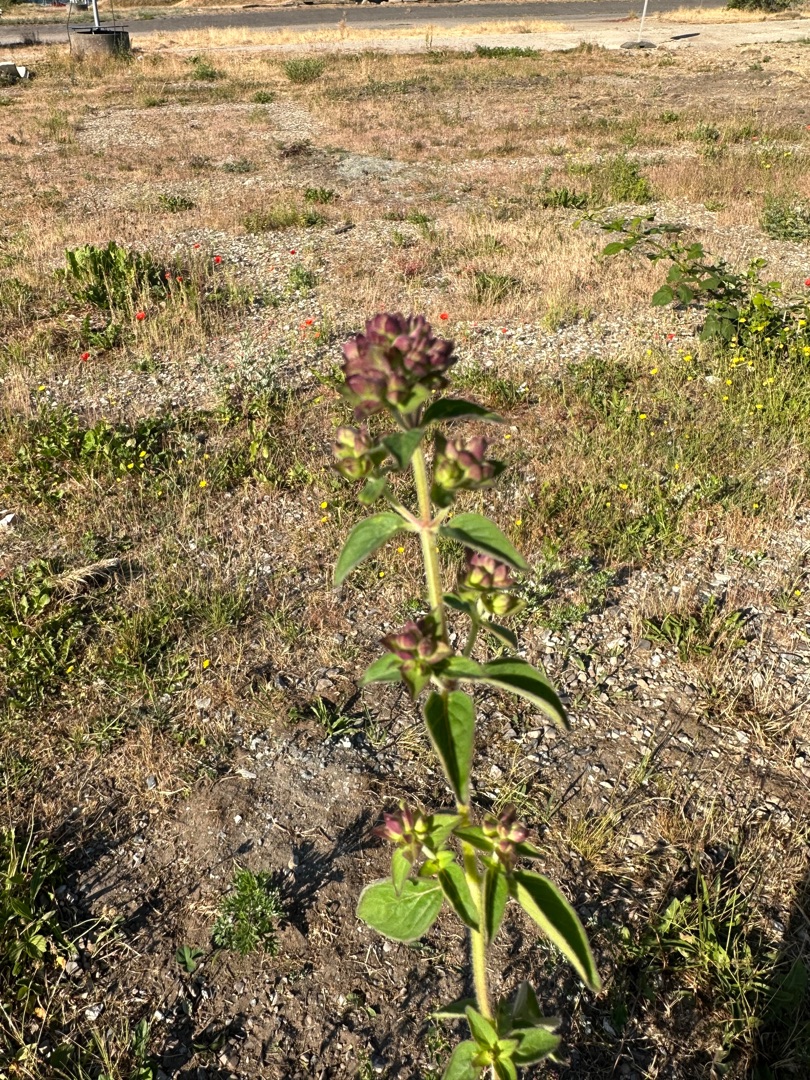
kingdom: Plantae
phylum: Tracheophyta
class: Magnoliopsida
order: Lamiales
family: Lamiaceae
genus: Origanum
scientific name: Origanum vulgare
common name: Merian
